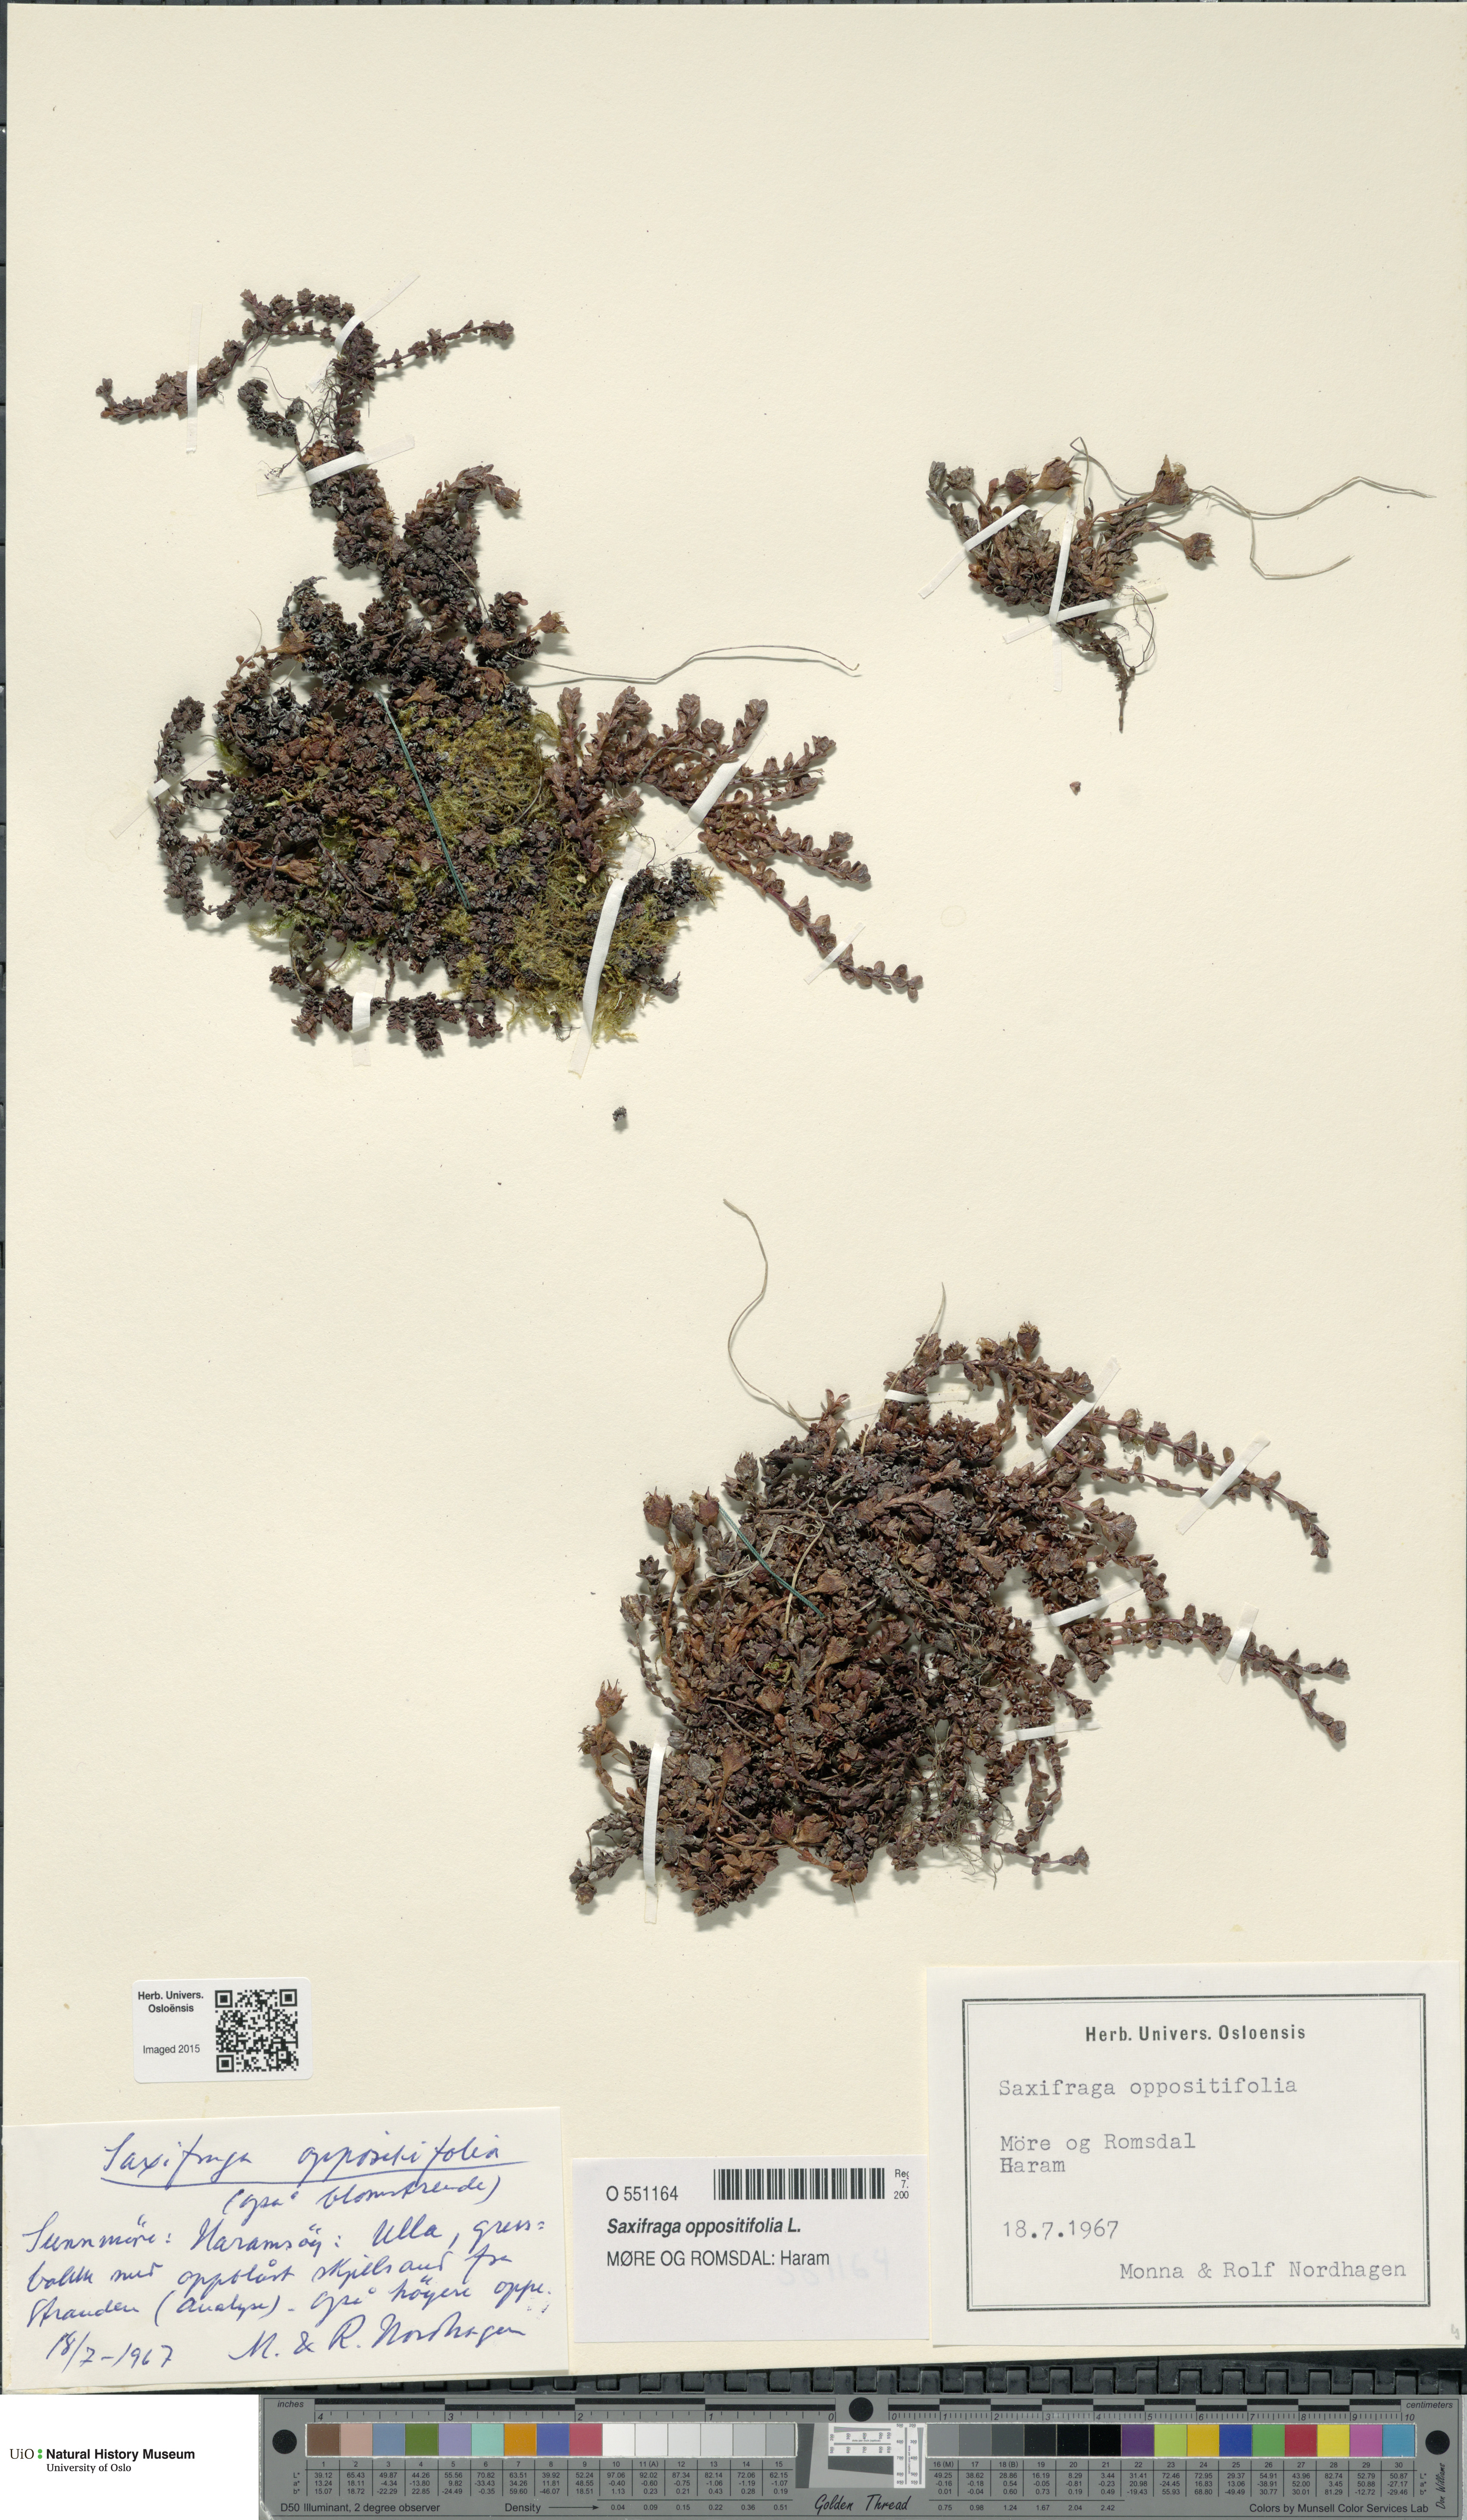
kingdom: Plantae
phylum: Tracheophyta
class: Magnoliopsida
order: Saxifragales
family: Saxifragaceae
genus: Saxifraga
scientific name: Saxifraga oppositifolia
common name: Purple saxifrage
